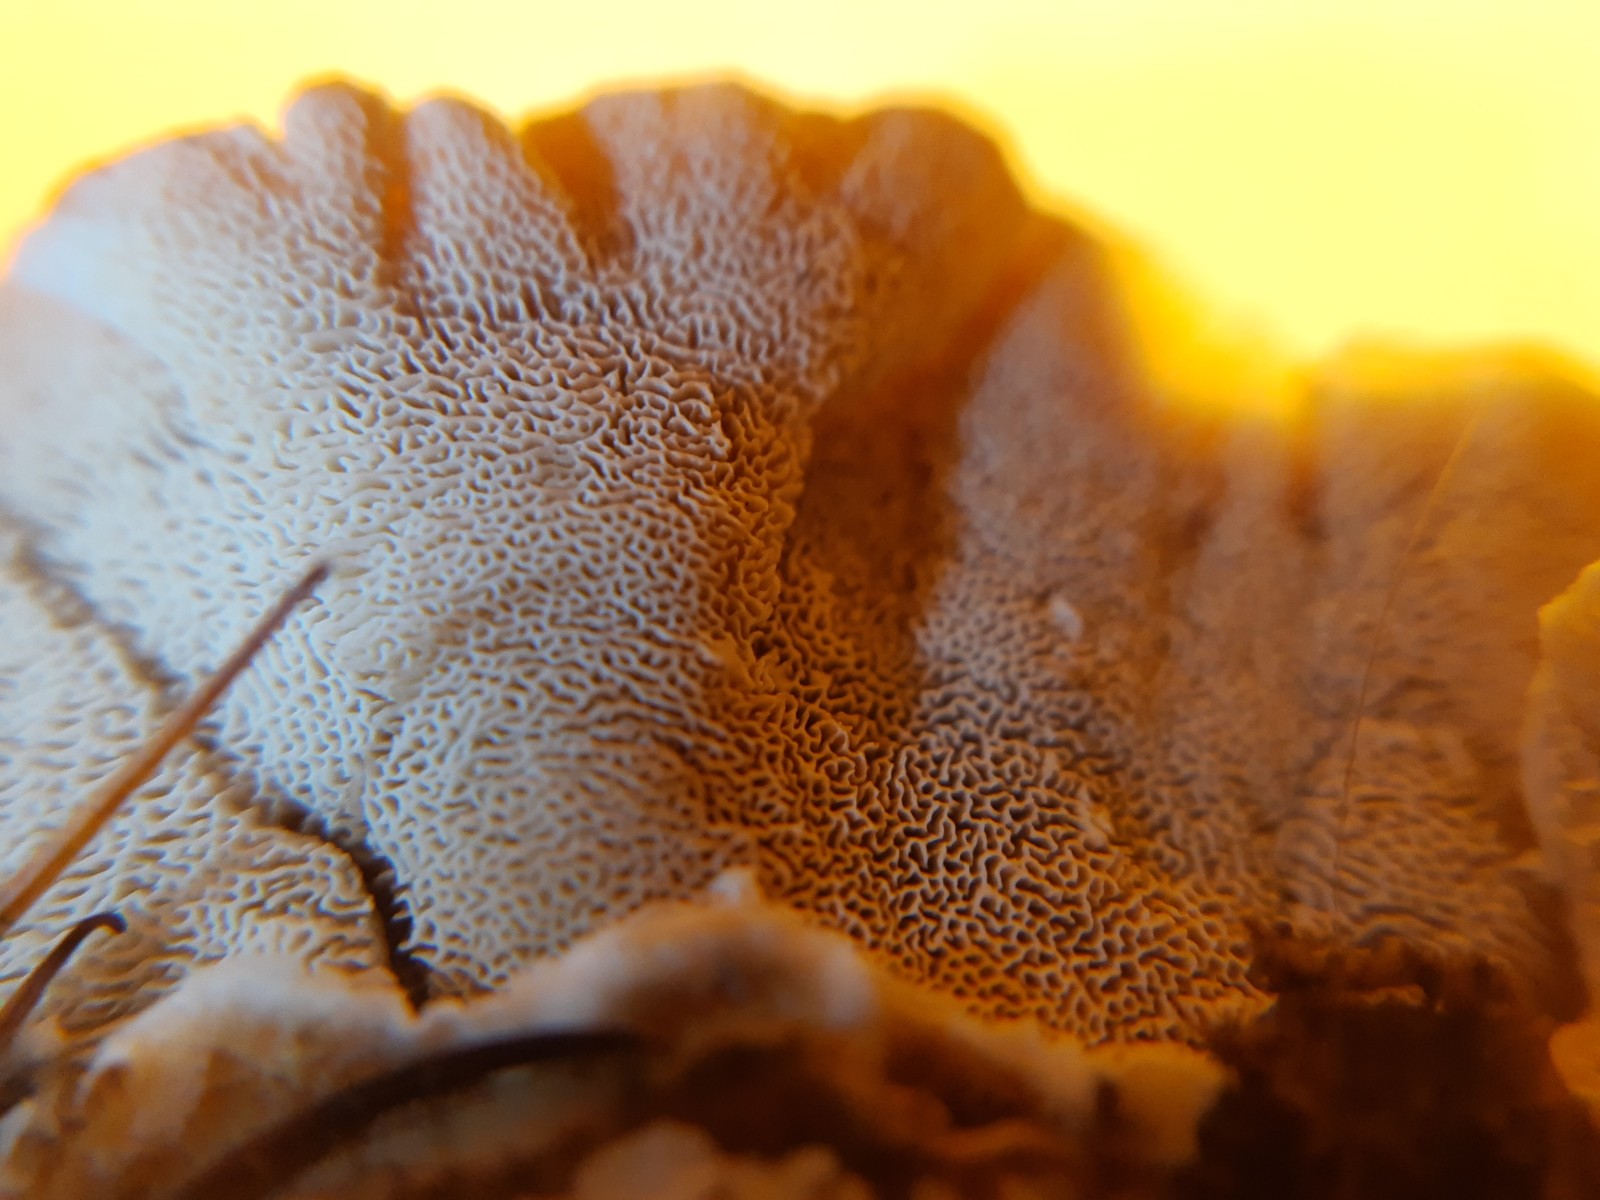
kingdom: Fungi
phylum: Basidiomycota
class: Agaricomycetes
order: Polyporales
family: Polyporaceae
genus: Trametes
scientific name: Trametes versicolor
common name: broget læderporesvamp
